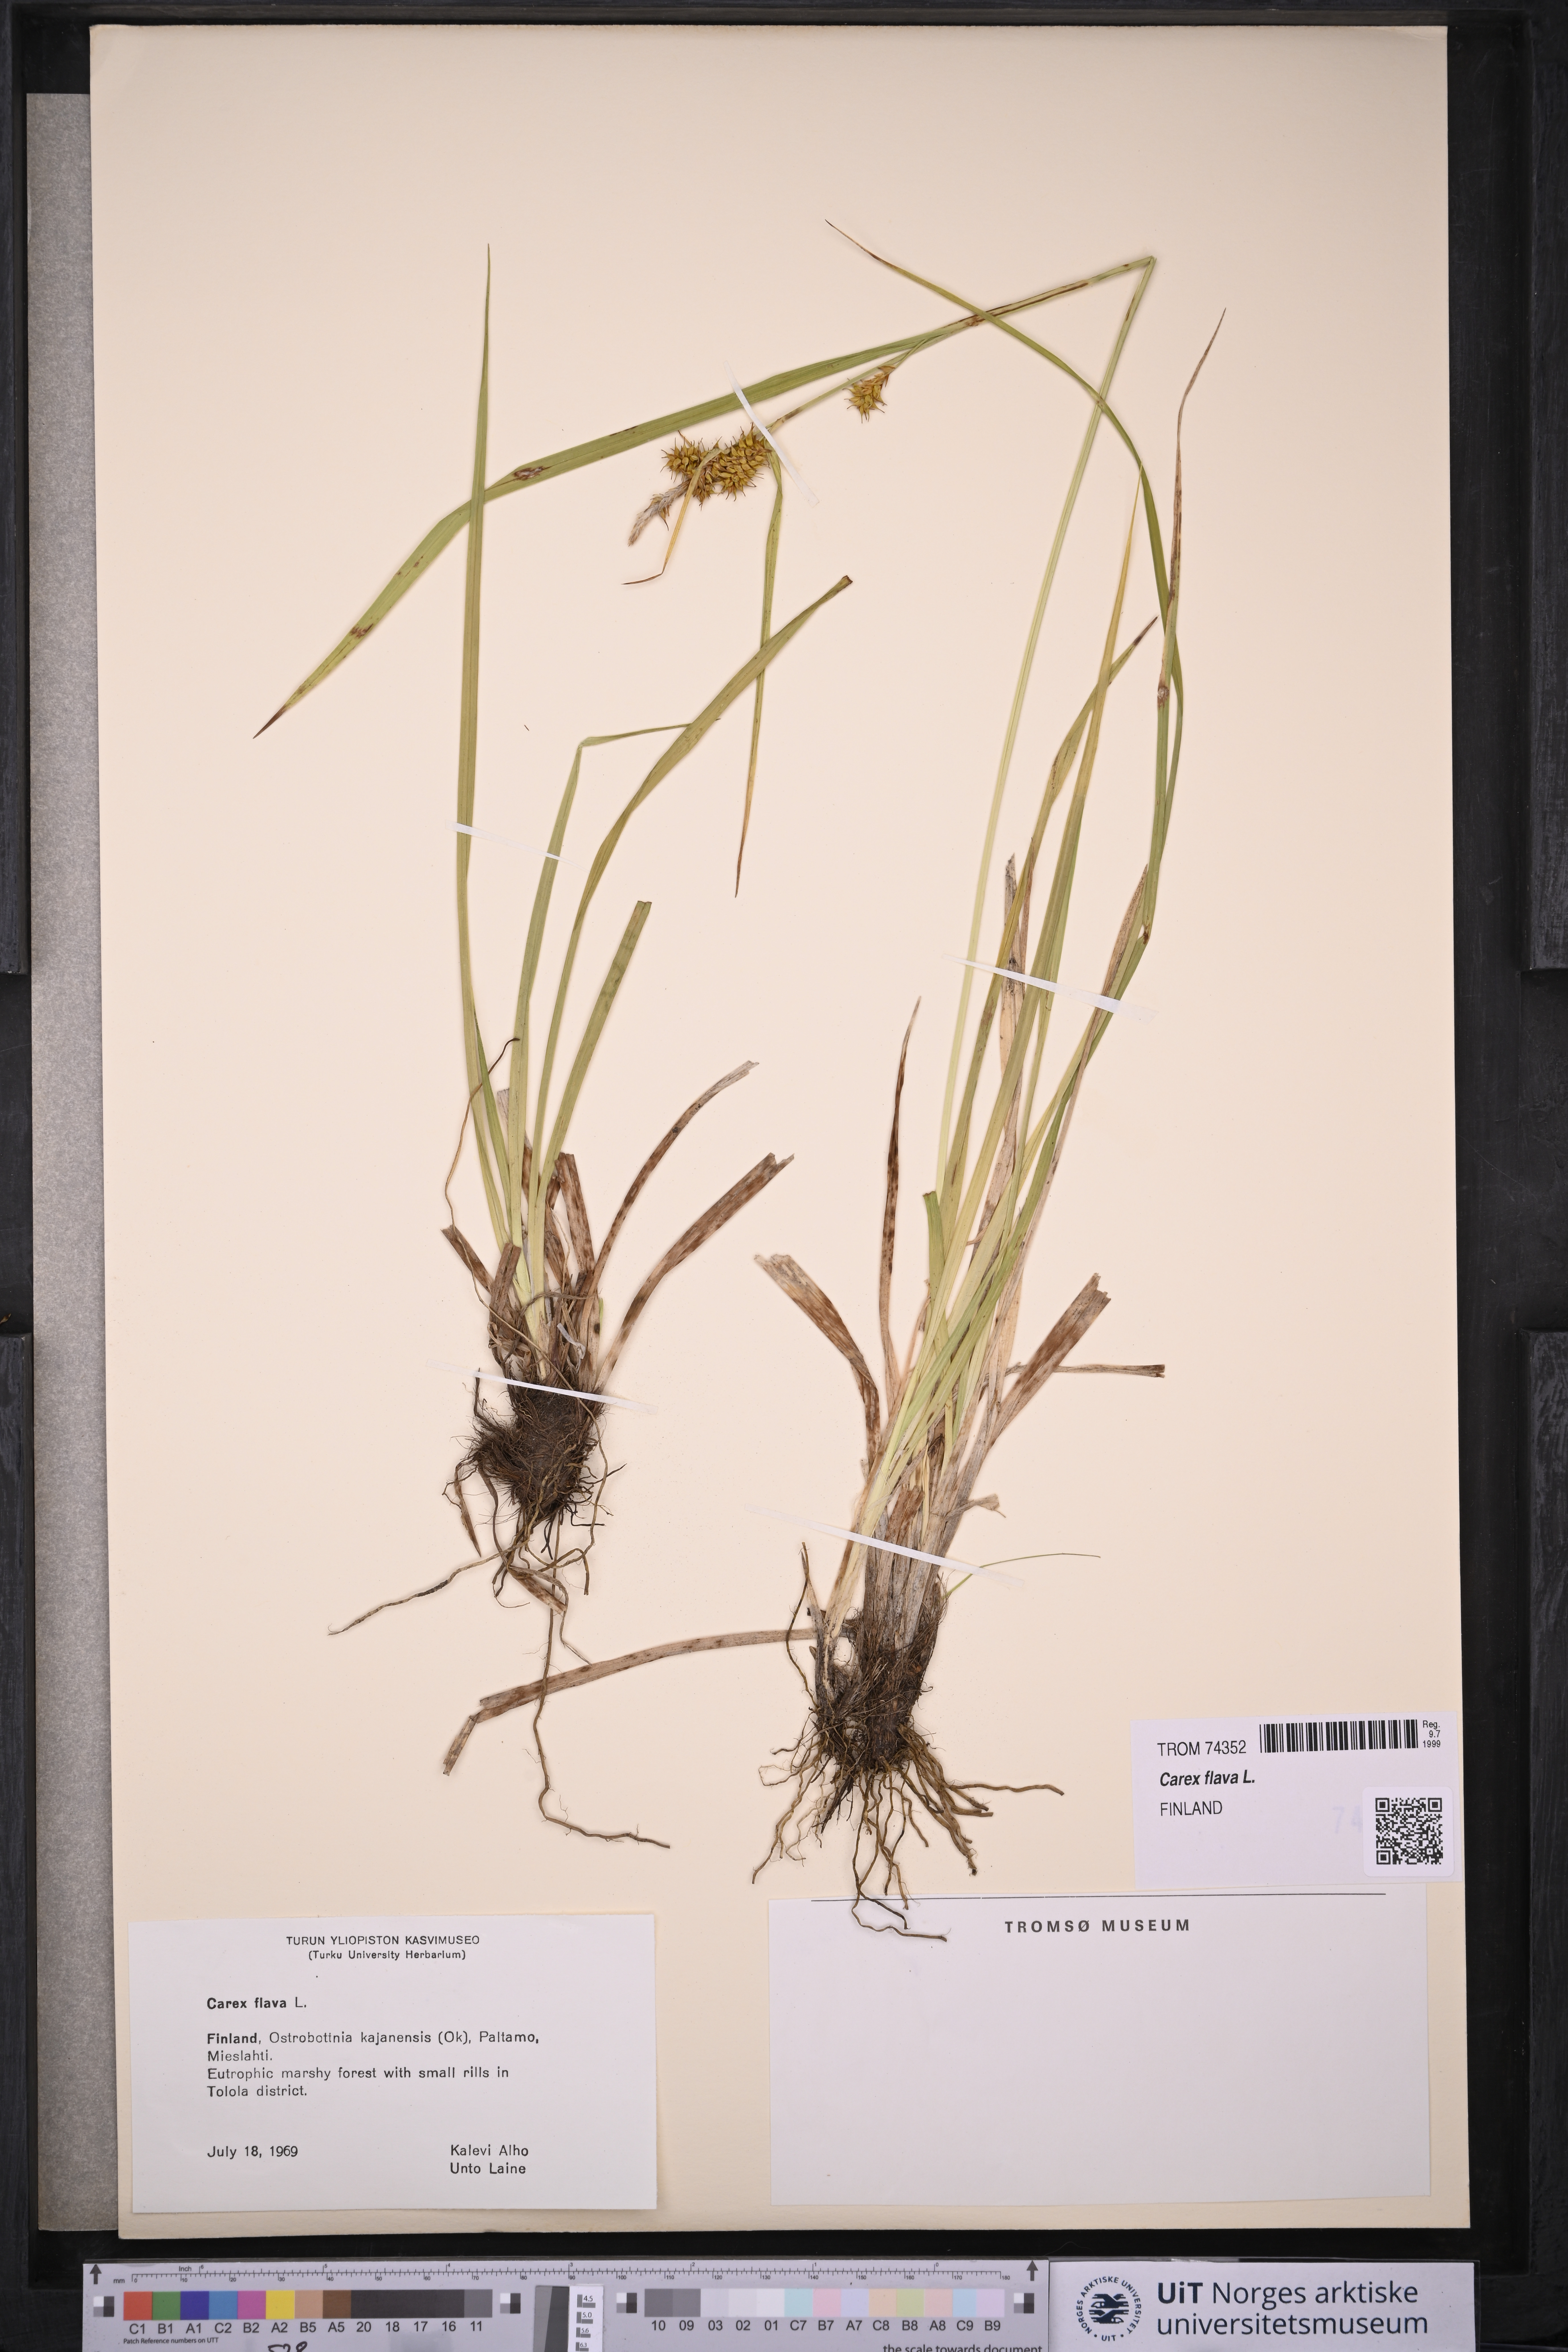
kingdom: Plantae
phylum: Tracheophyta
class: Liliopsida
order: Poales
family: Cyperaceae
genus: Carex
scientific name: Carex flava
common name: Large yellow-sedge
